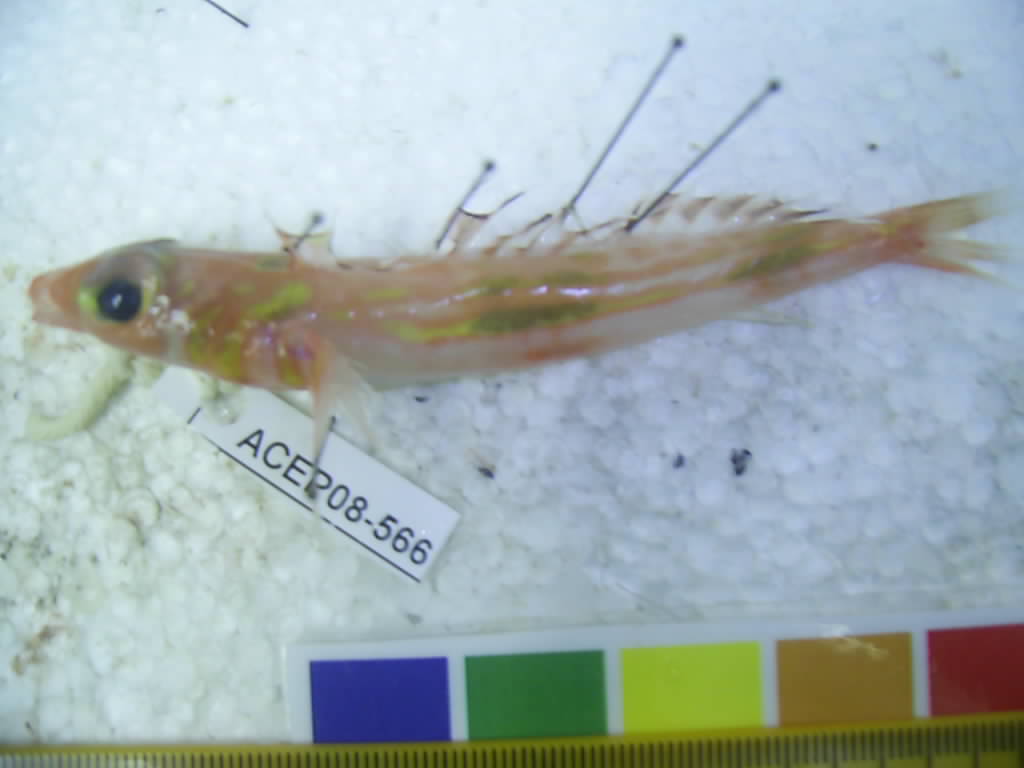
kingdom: Animalia
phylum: Chordata
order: Perciformes
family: Draconettidae
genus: Centrodraco
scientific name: Centrodraco lineatus
